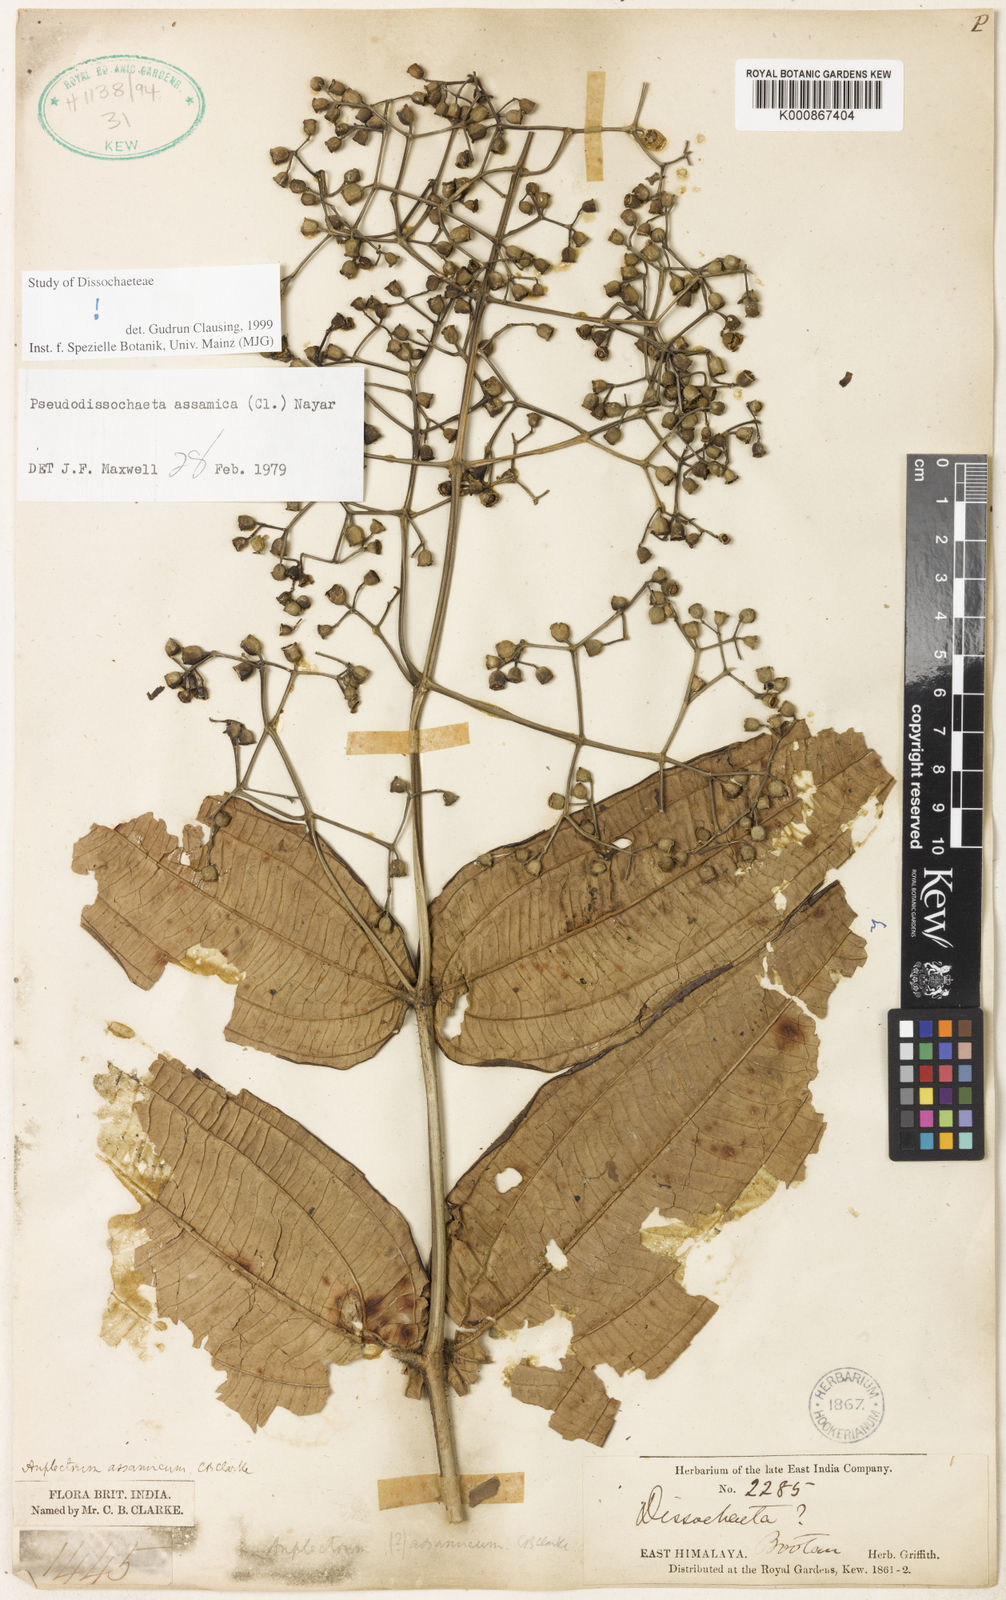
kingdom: Plantae
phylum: Tracheophyta
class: Magnoliopsida
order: Myrtales
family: Melastomataceae
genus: Pseudodissochaeta
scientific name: Pseudodissochaeta assamica
